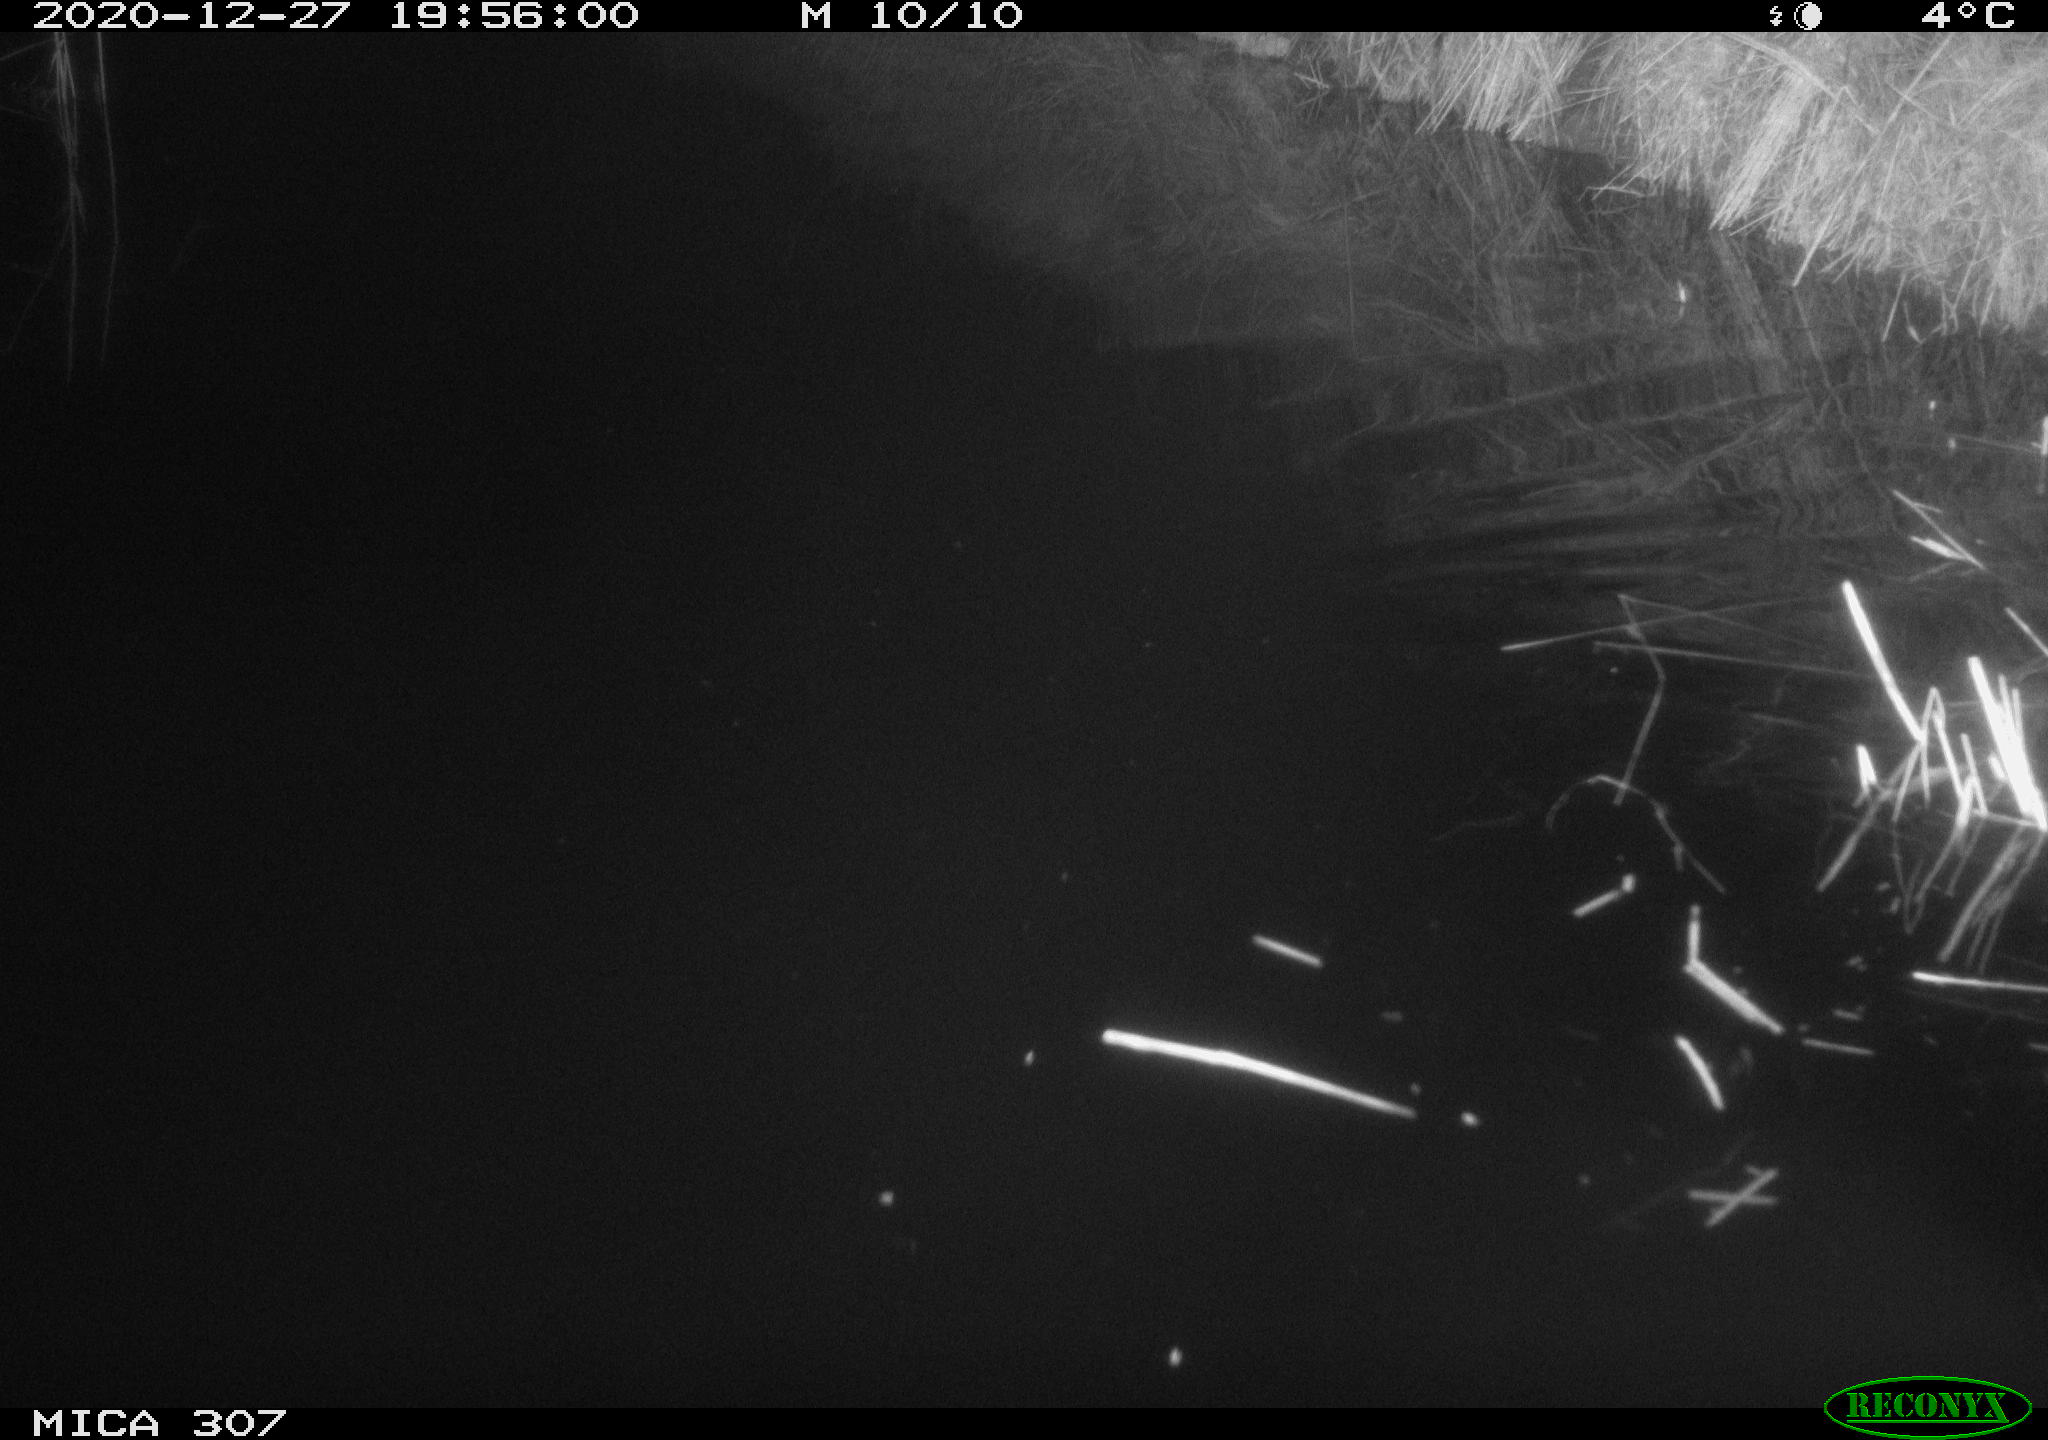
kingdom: Animalia
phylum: Chordata
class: Mammalia
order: Rodentia
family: Muridae
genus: Rattus
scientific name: Rattus norvegicus
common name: Brown rat
